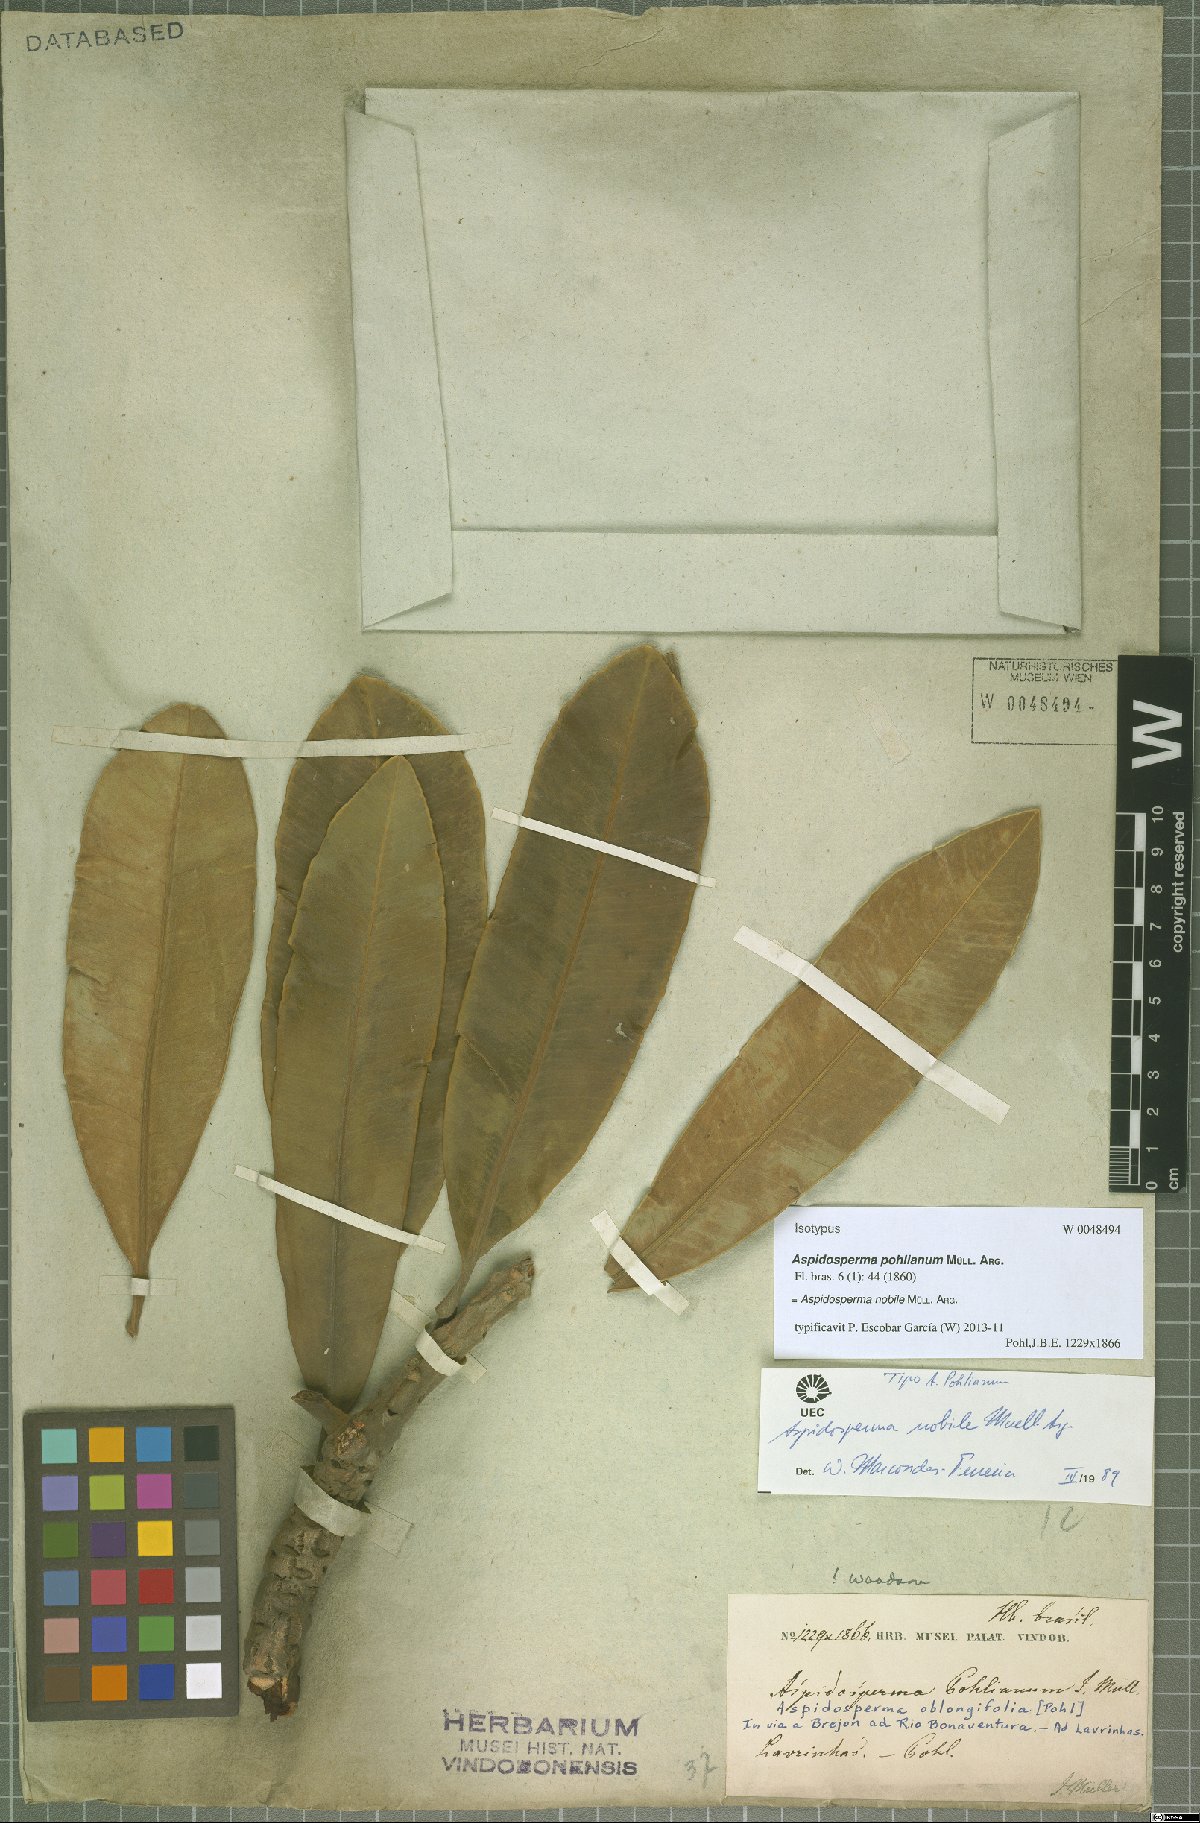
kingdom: Plantae
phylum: Tracheophyta
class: Magnoliopsida
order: Gentianales
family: Apocynaceae
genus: Aspidosperma
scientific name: Aspidosperma nobile
